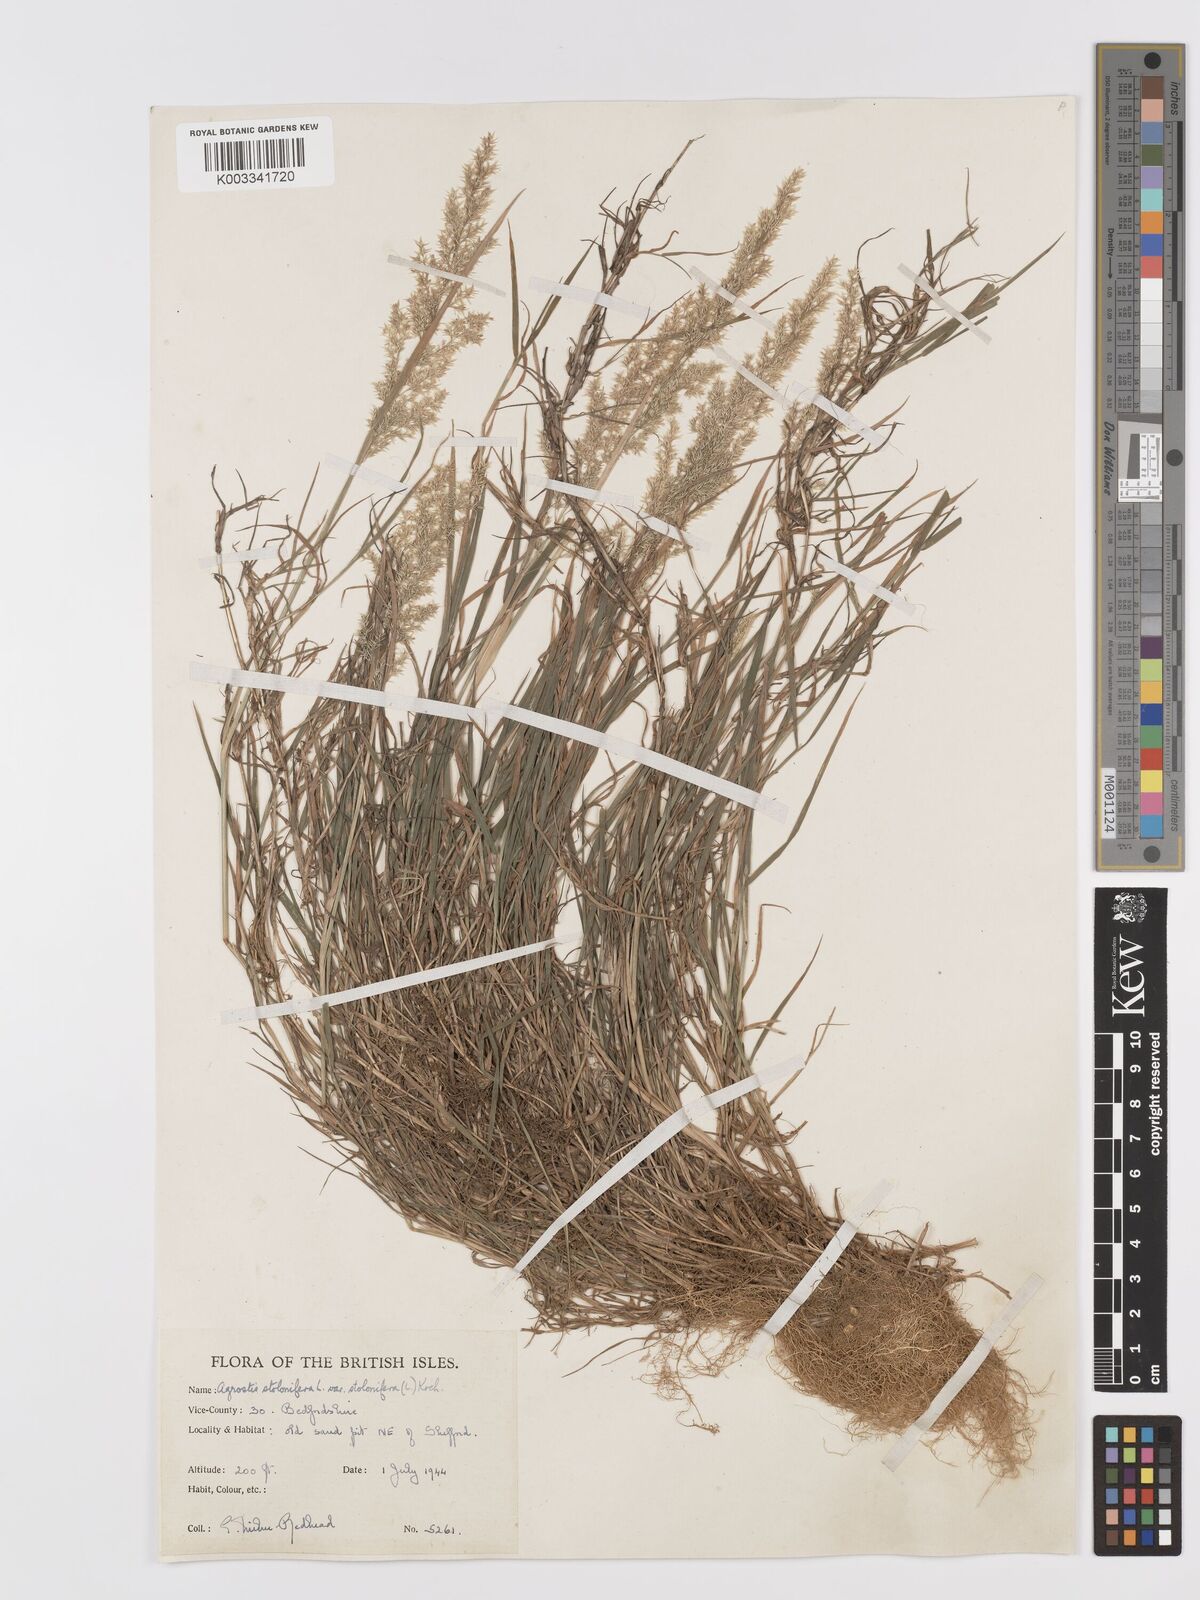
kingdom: Plantae
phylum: Tracheophyta
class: Liliopsida
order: Poales
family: Poaceae
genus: Agrostis
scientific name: Agrostis stolonifera
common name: Creeping bentgrass
